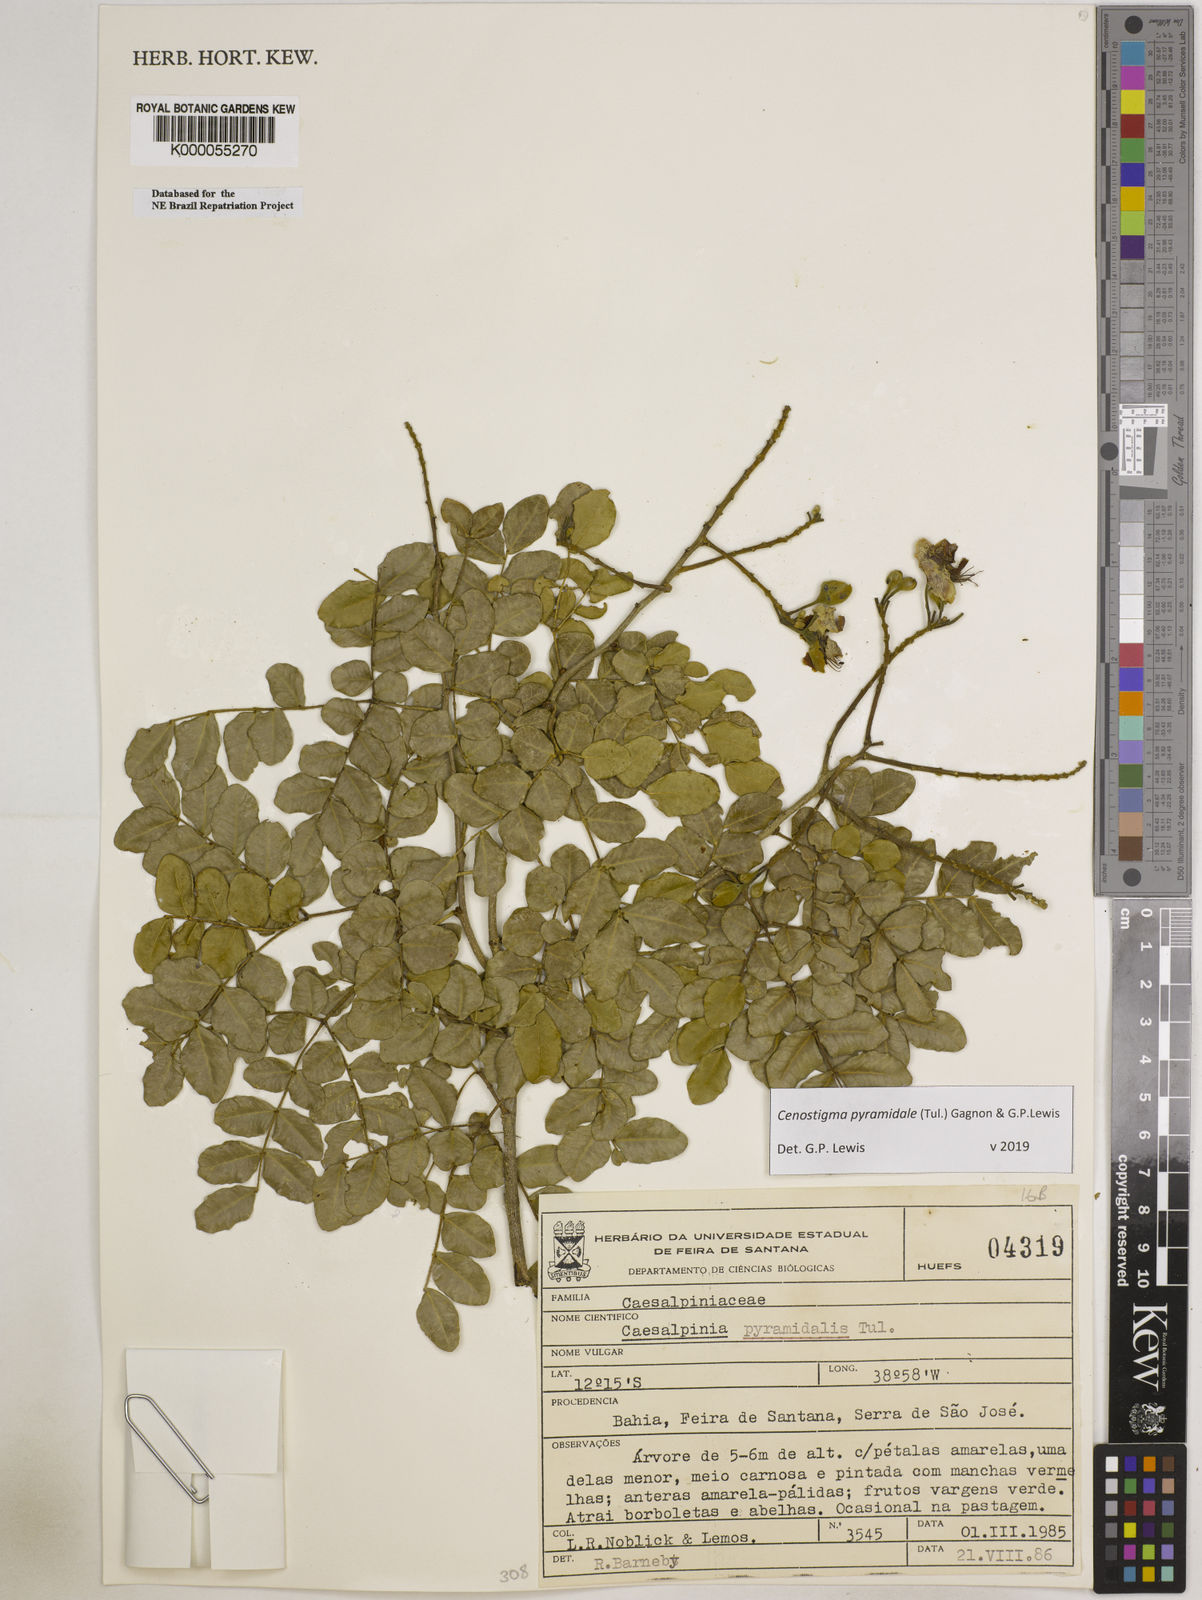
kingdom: Plantae
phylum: Tracheophyta
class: Magnoliopsida
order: Fabales
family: Fabaceae
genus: Cenostigma
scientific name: Cenostigma pyramidale
